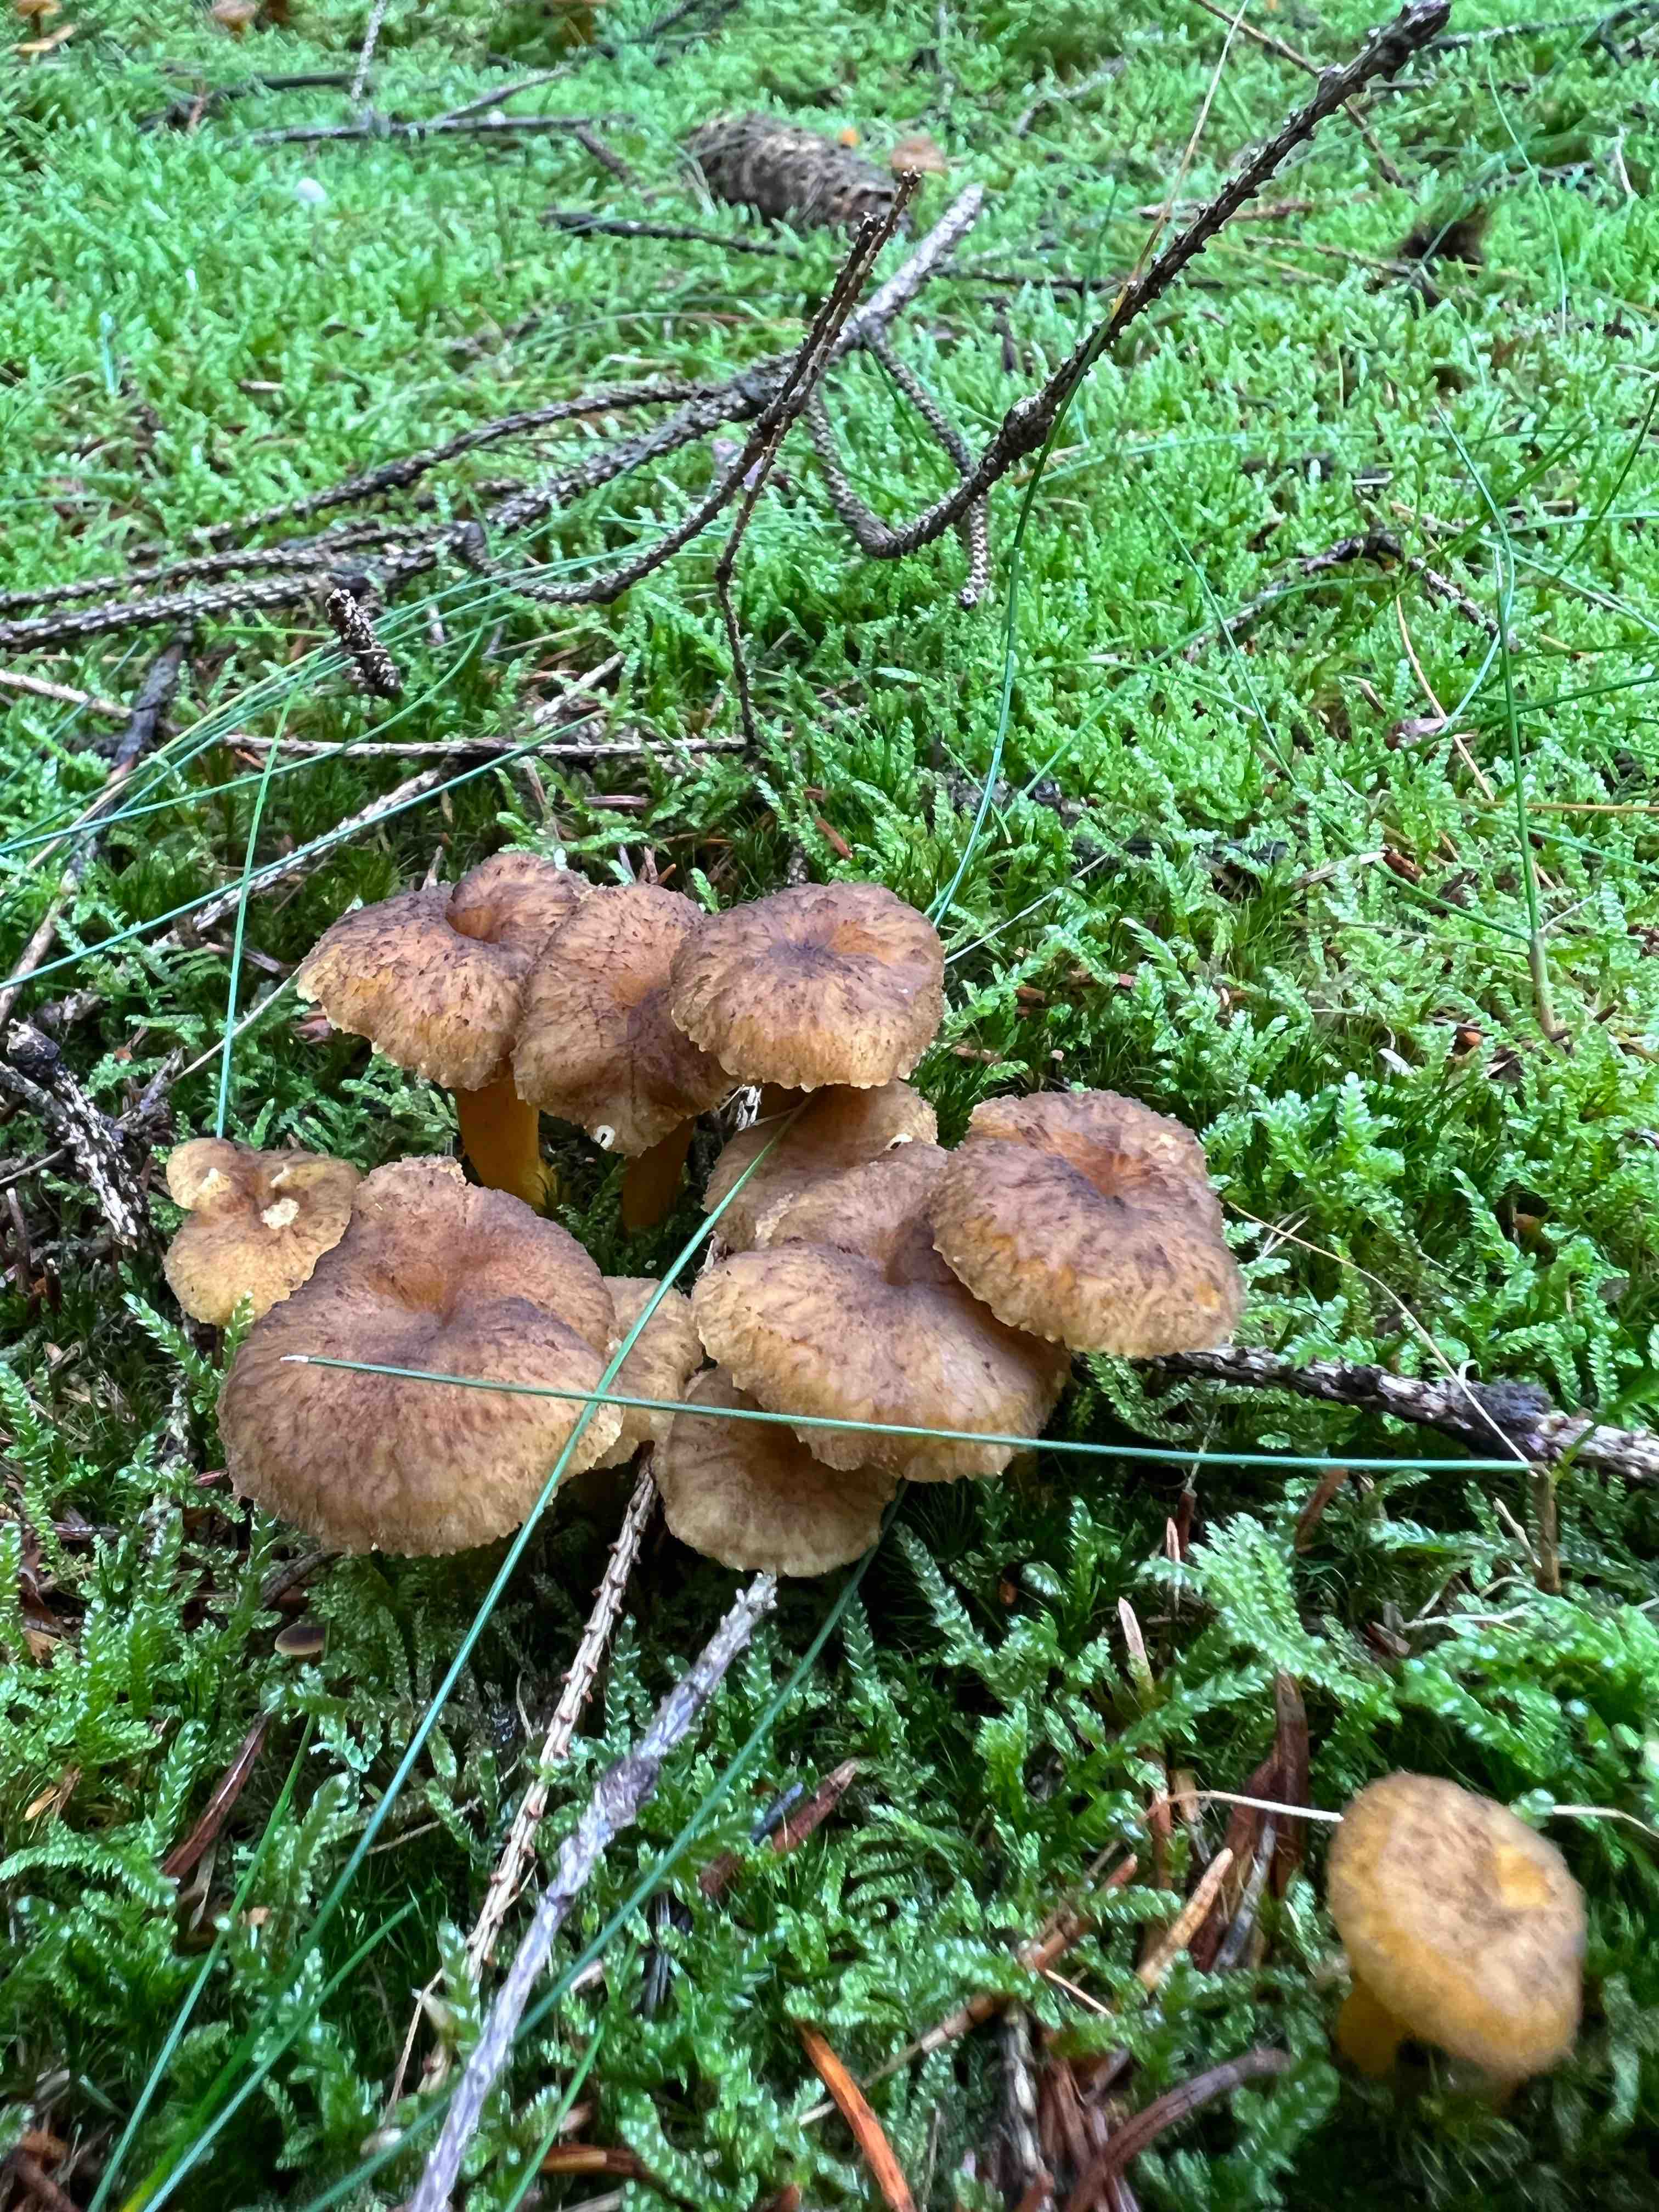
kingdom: Fungi
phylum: Basidiomycota
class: Agaricomycetes
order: Cantharellales
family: Hydnaceae
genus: Craterellus
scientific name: Craterellus tubaeformis
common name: tragt-kantarel
